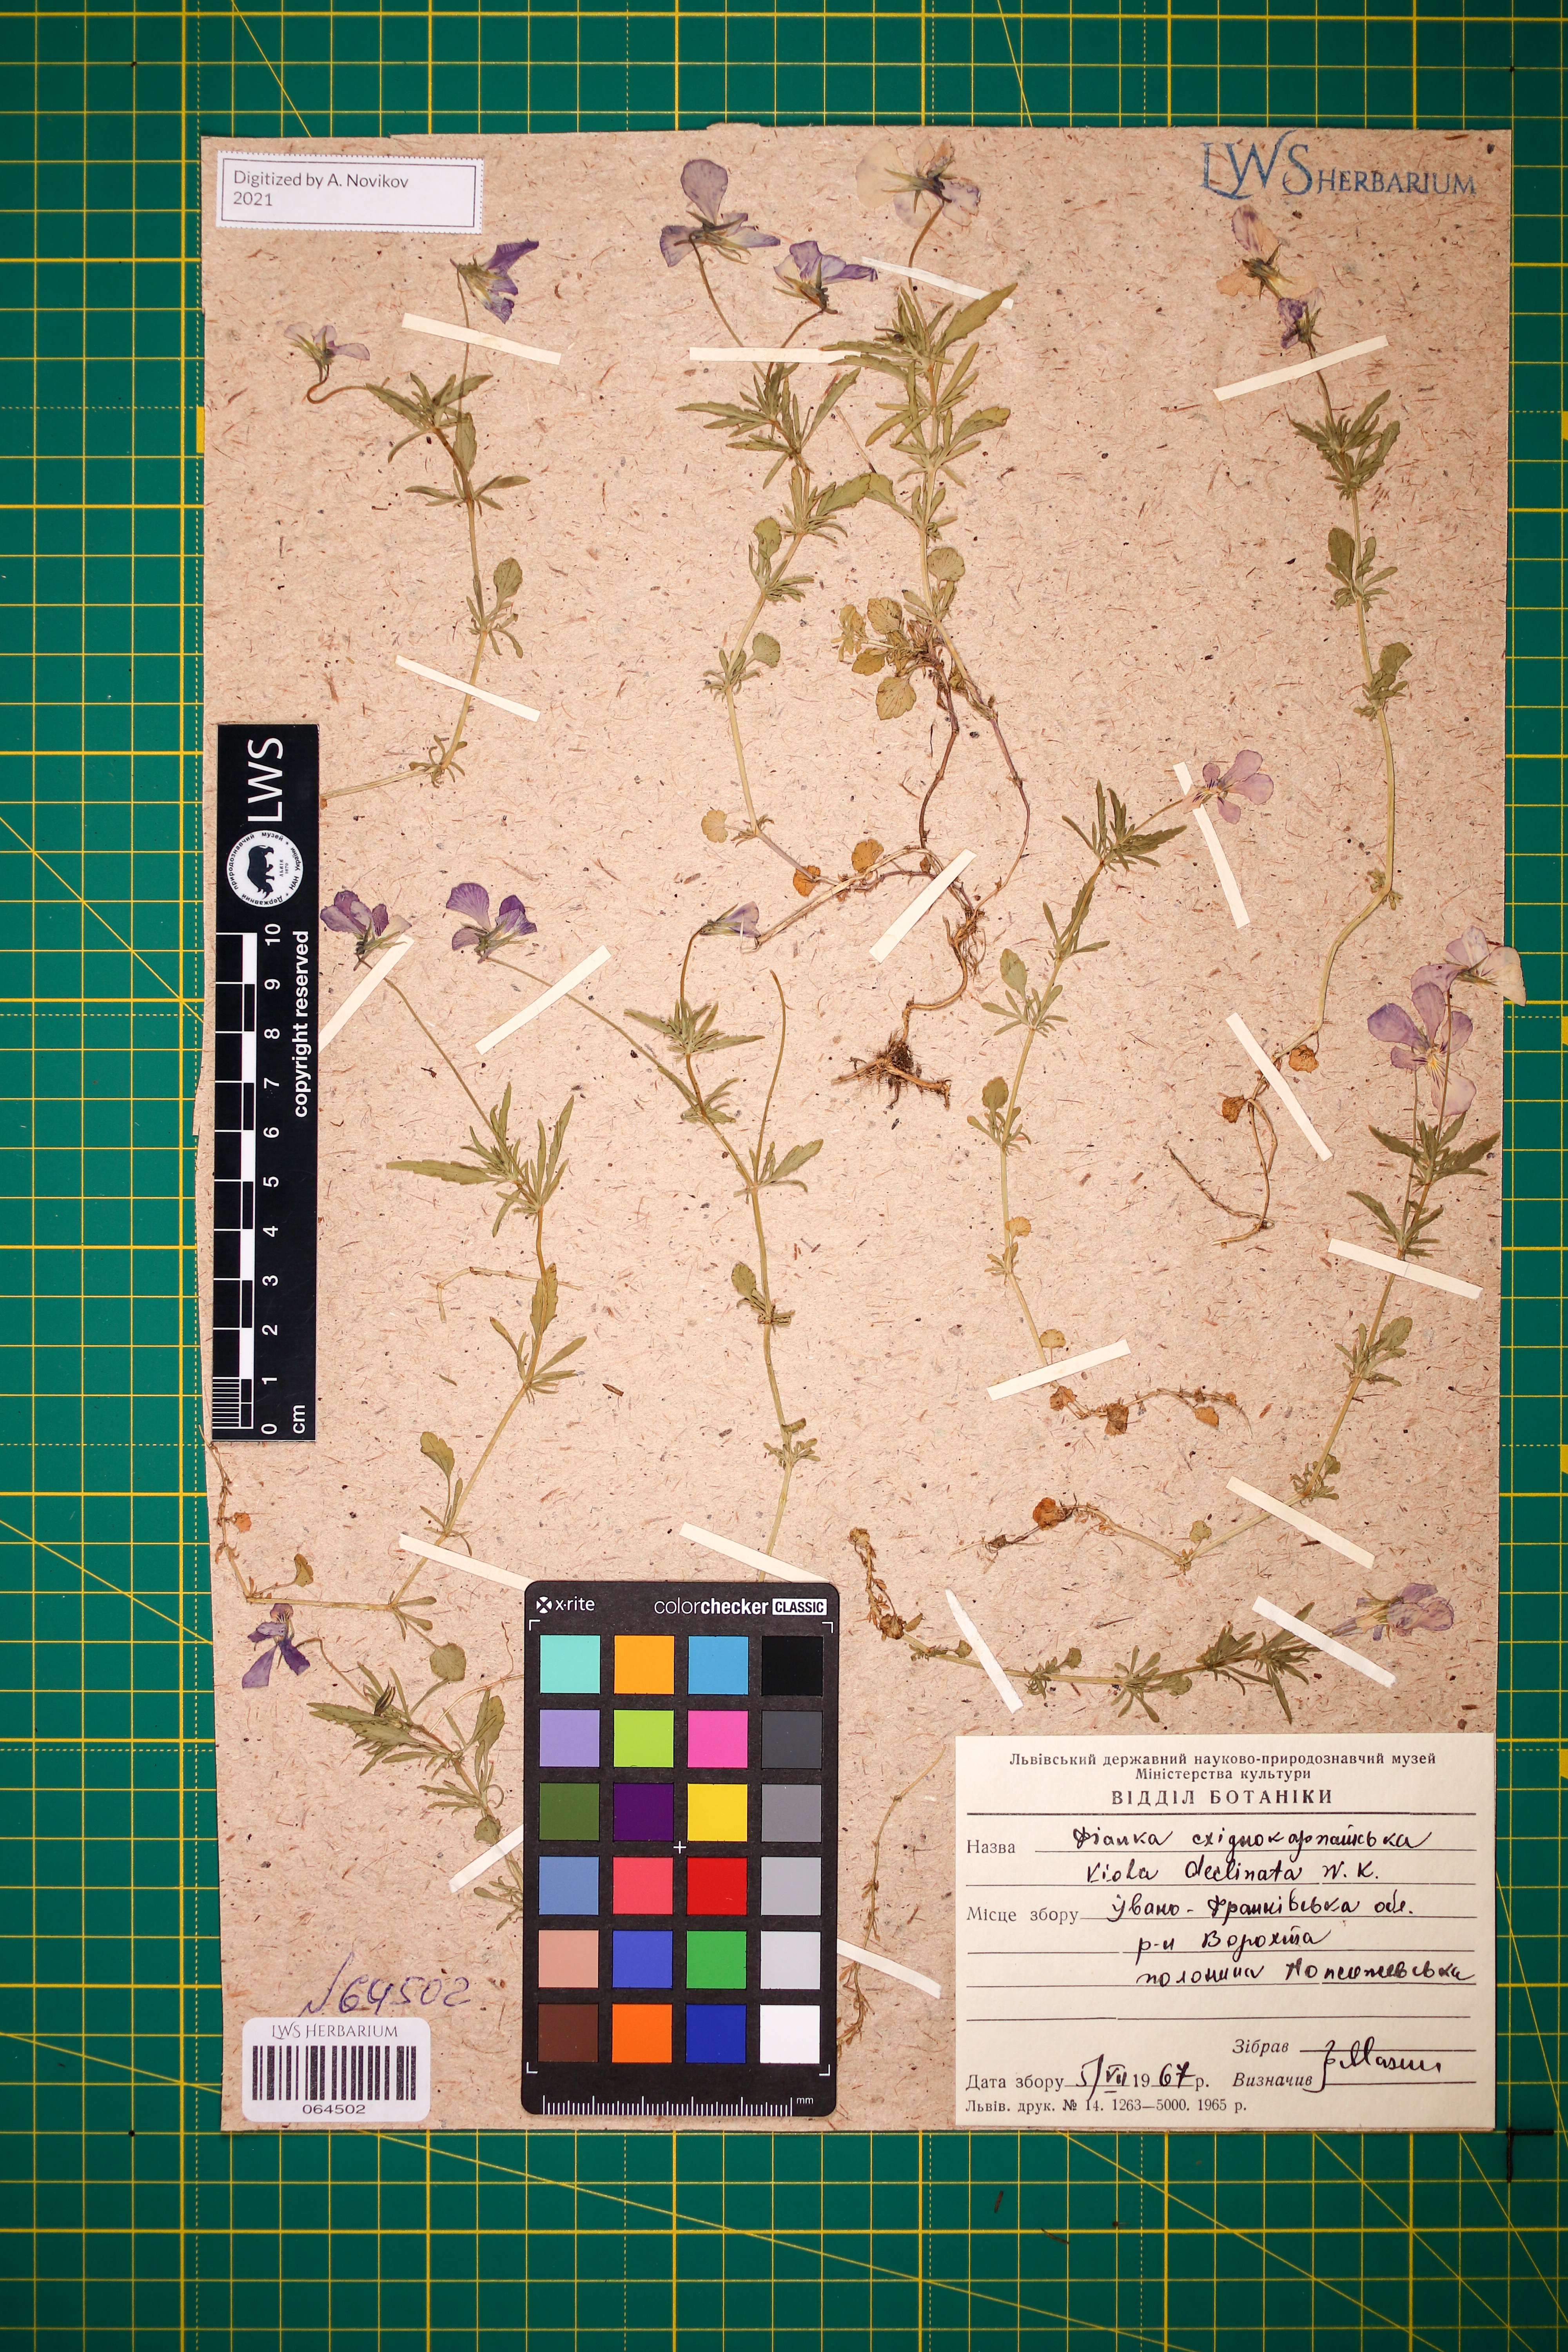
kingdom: Plantae
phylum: Tracheophyta
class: Magnoliopsida
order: Malpighiales
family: Violaceae
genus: Viola
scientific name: Viola declinata
